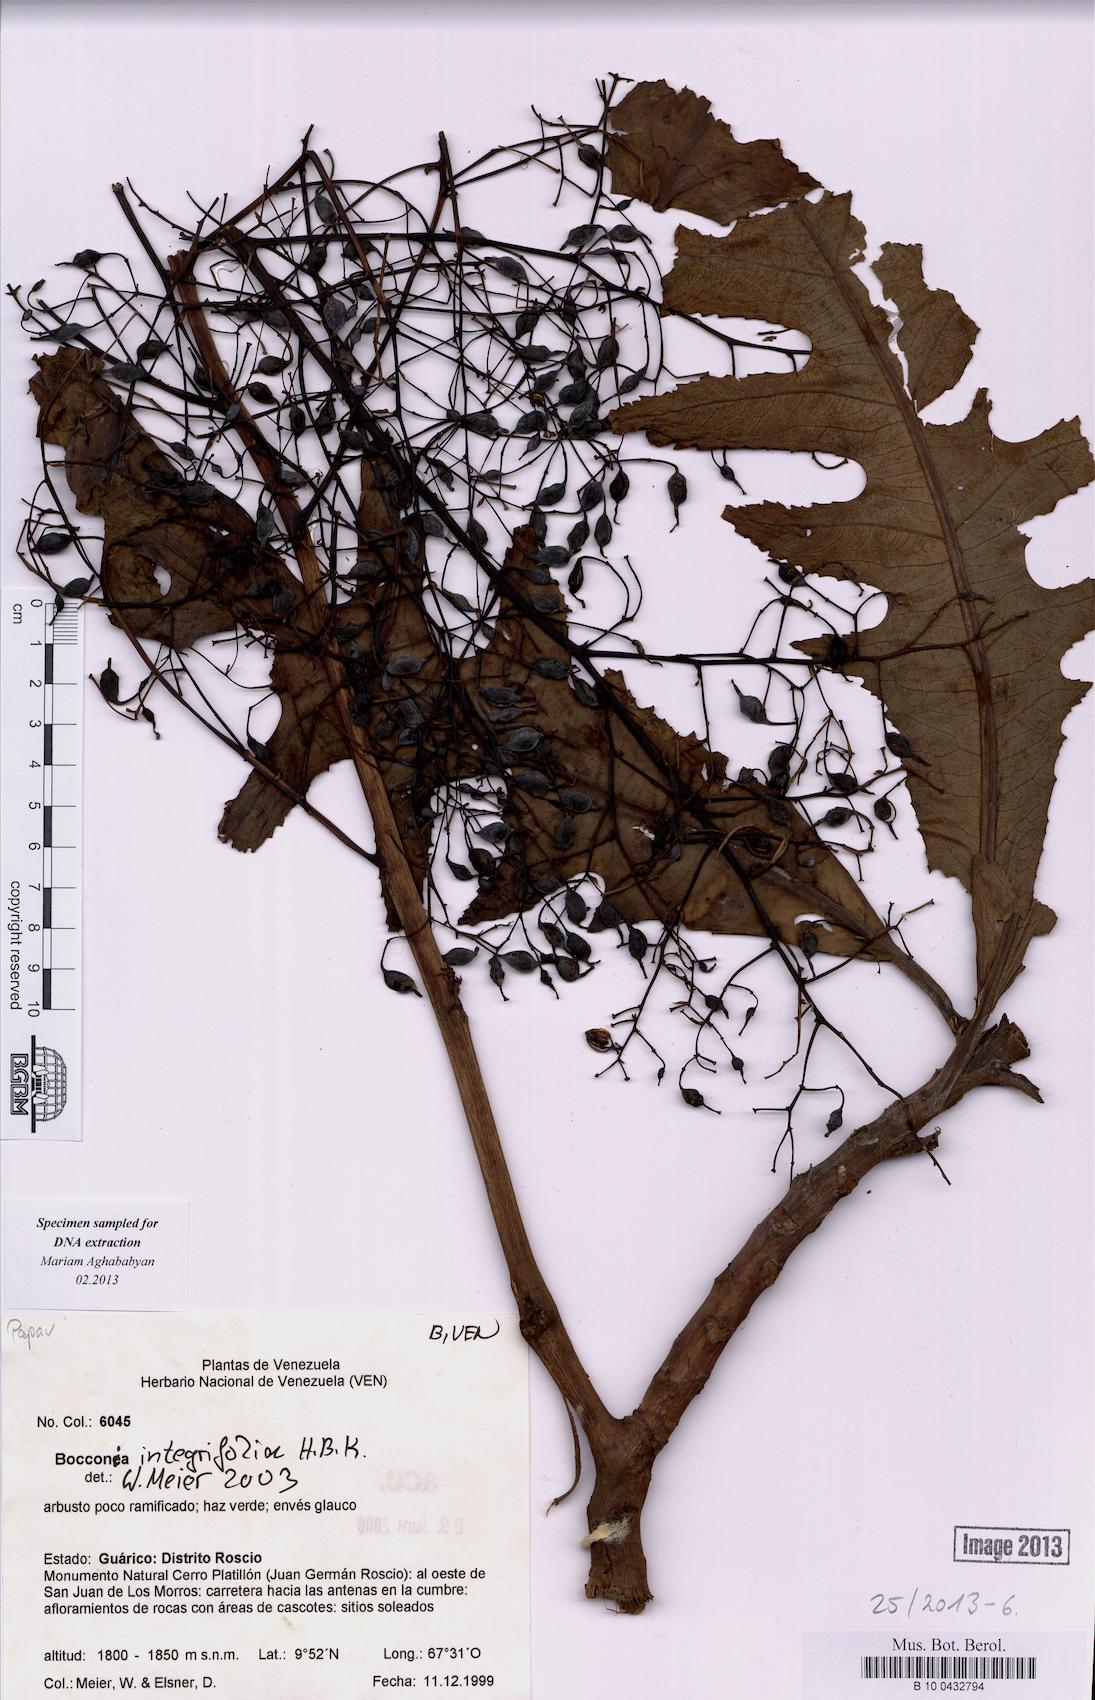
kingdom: Plantae
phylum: Tracheophyta
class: Magnoliopsida
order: Ranunculales
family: Papaveraceae
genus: Bocconia
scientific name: Bocconia integrifolia
